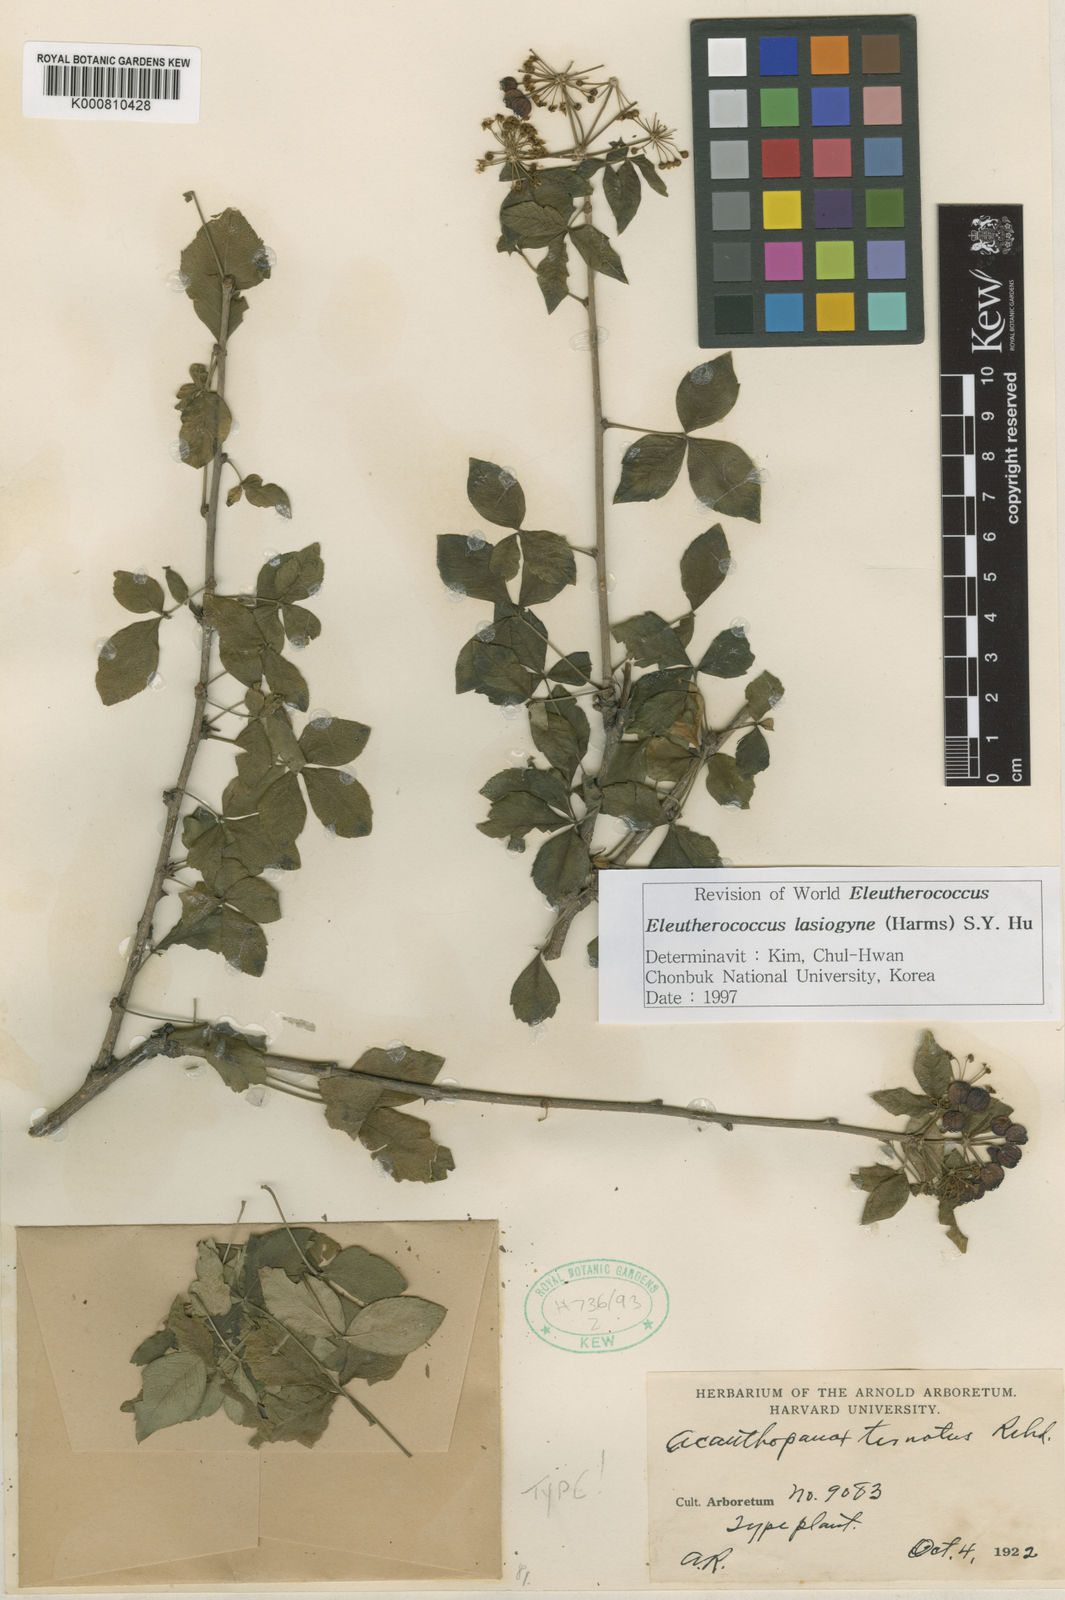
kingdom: Plantae
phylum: Tracheophyta
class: Magnoliopsida
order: Apiales
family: Araliaceae
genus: Eleutherococcus
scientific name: Eleutherococcus lasiogyne
